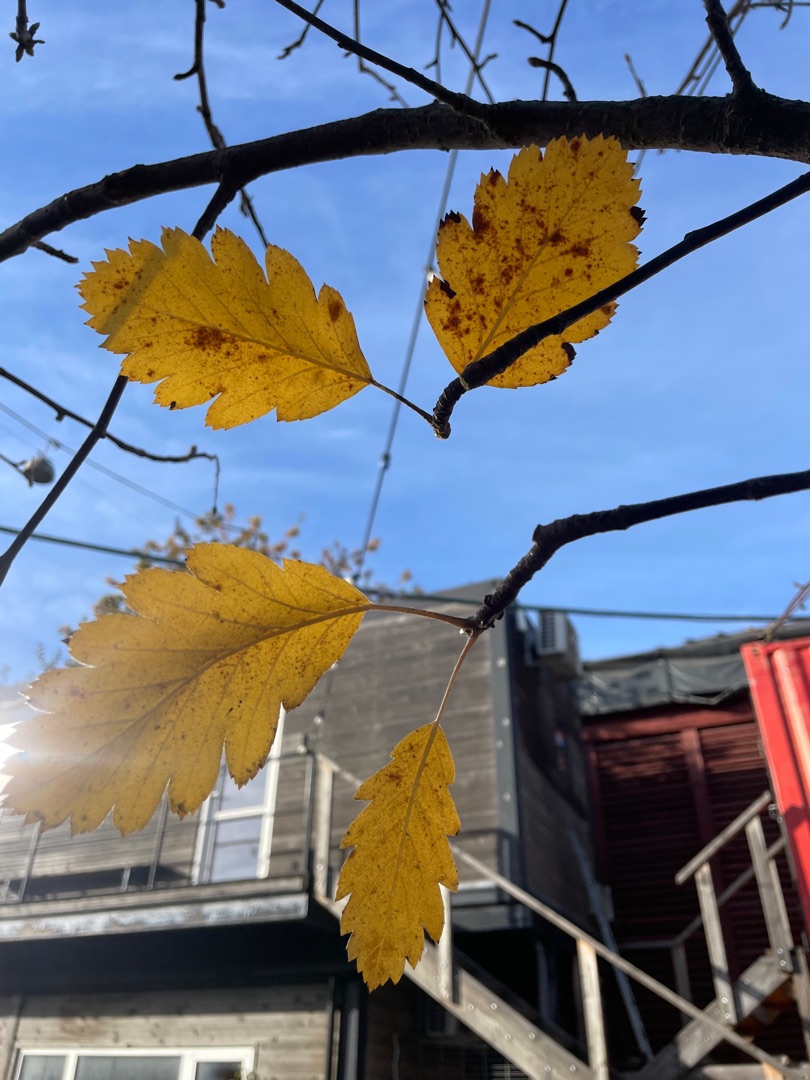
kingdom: Plantae
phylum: Tracheophyta
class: Magnoliopsida
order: Rosales
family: Rosaceae
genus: Scandosorbus
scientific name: Scandosorbus intermedia
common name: Selje-røn
